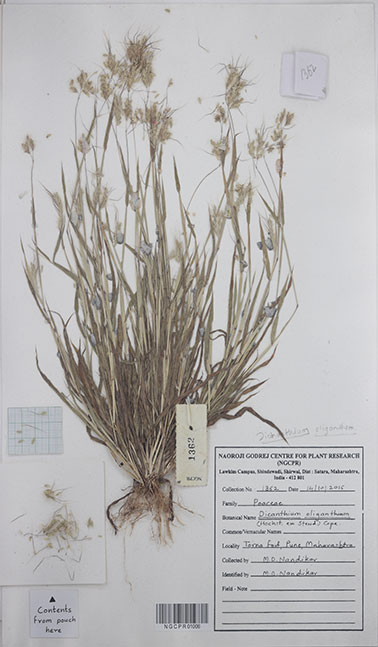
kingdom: Plantae
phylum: Tracheophyta
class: Liliopsida
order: Poales
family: Poaceae
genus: Euclasta
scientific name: Euclasta oligantha
